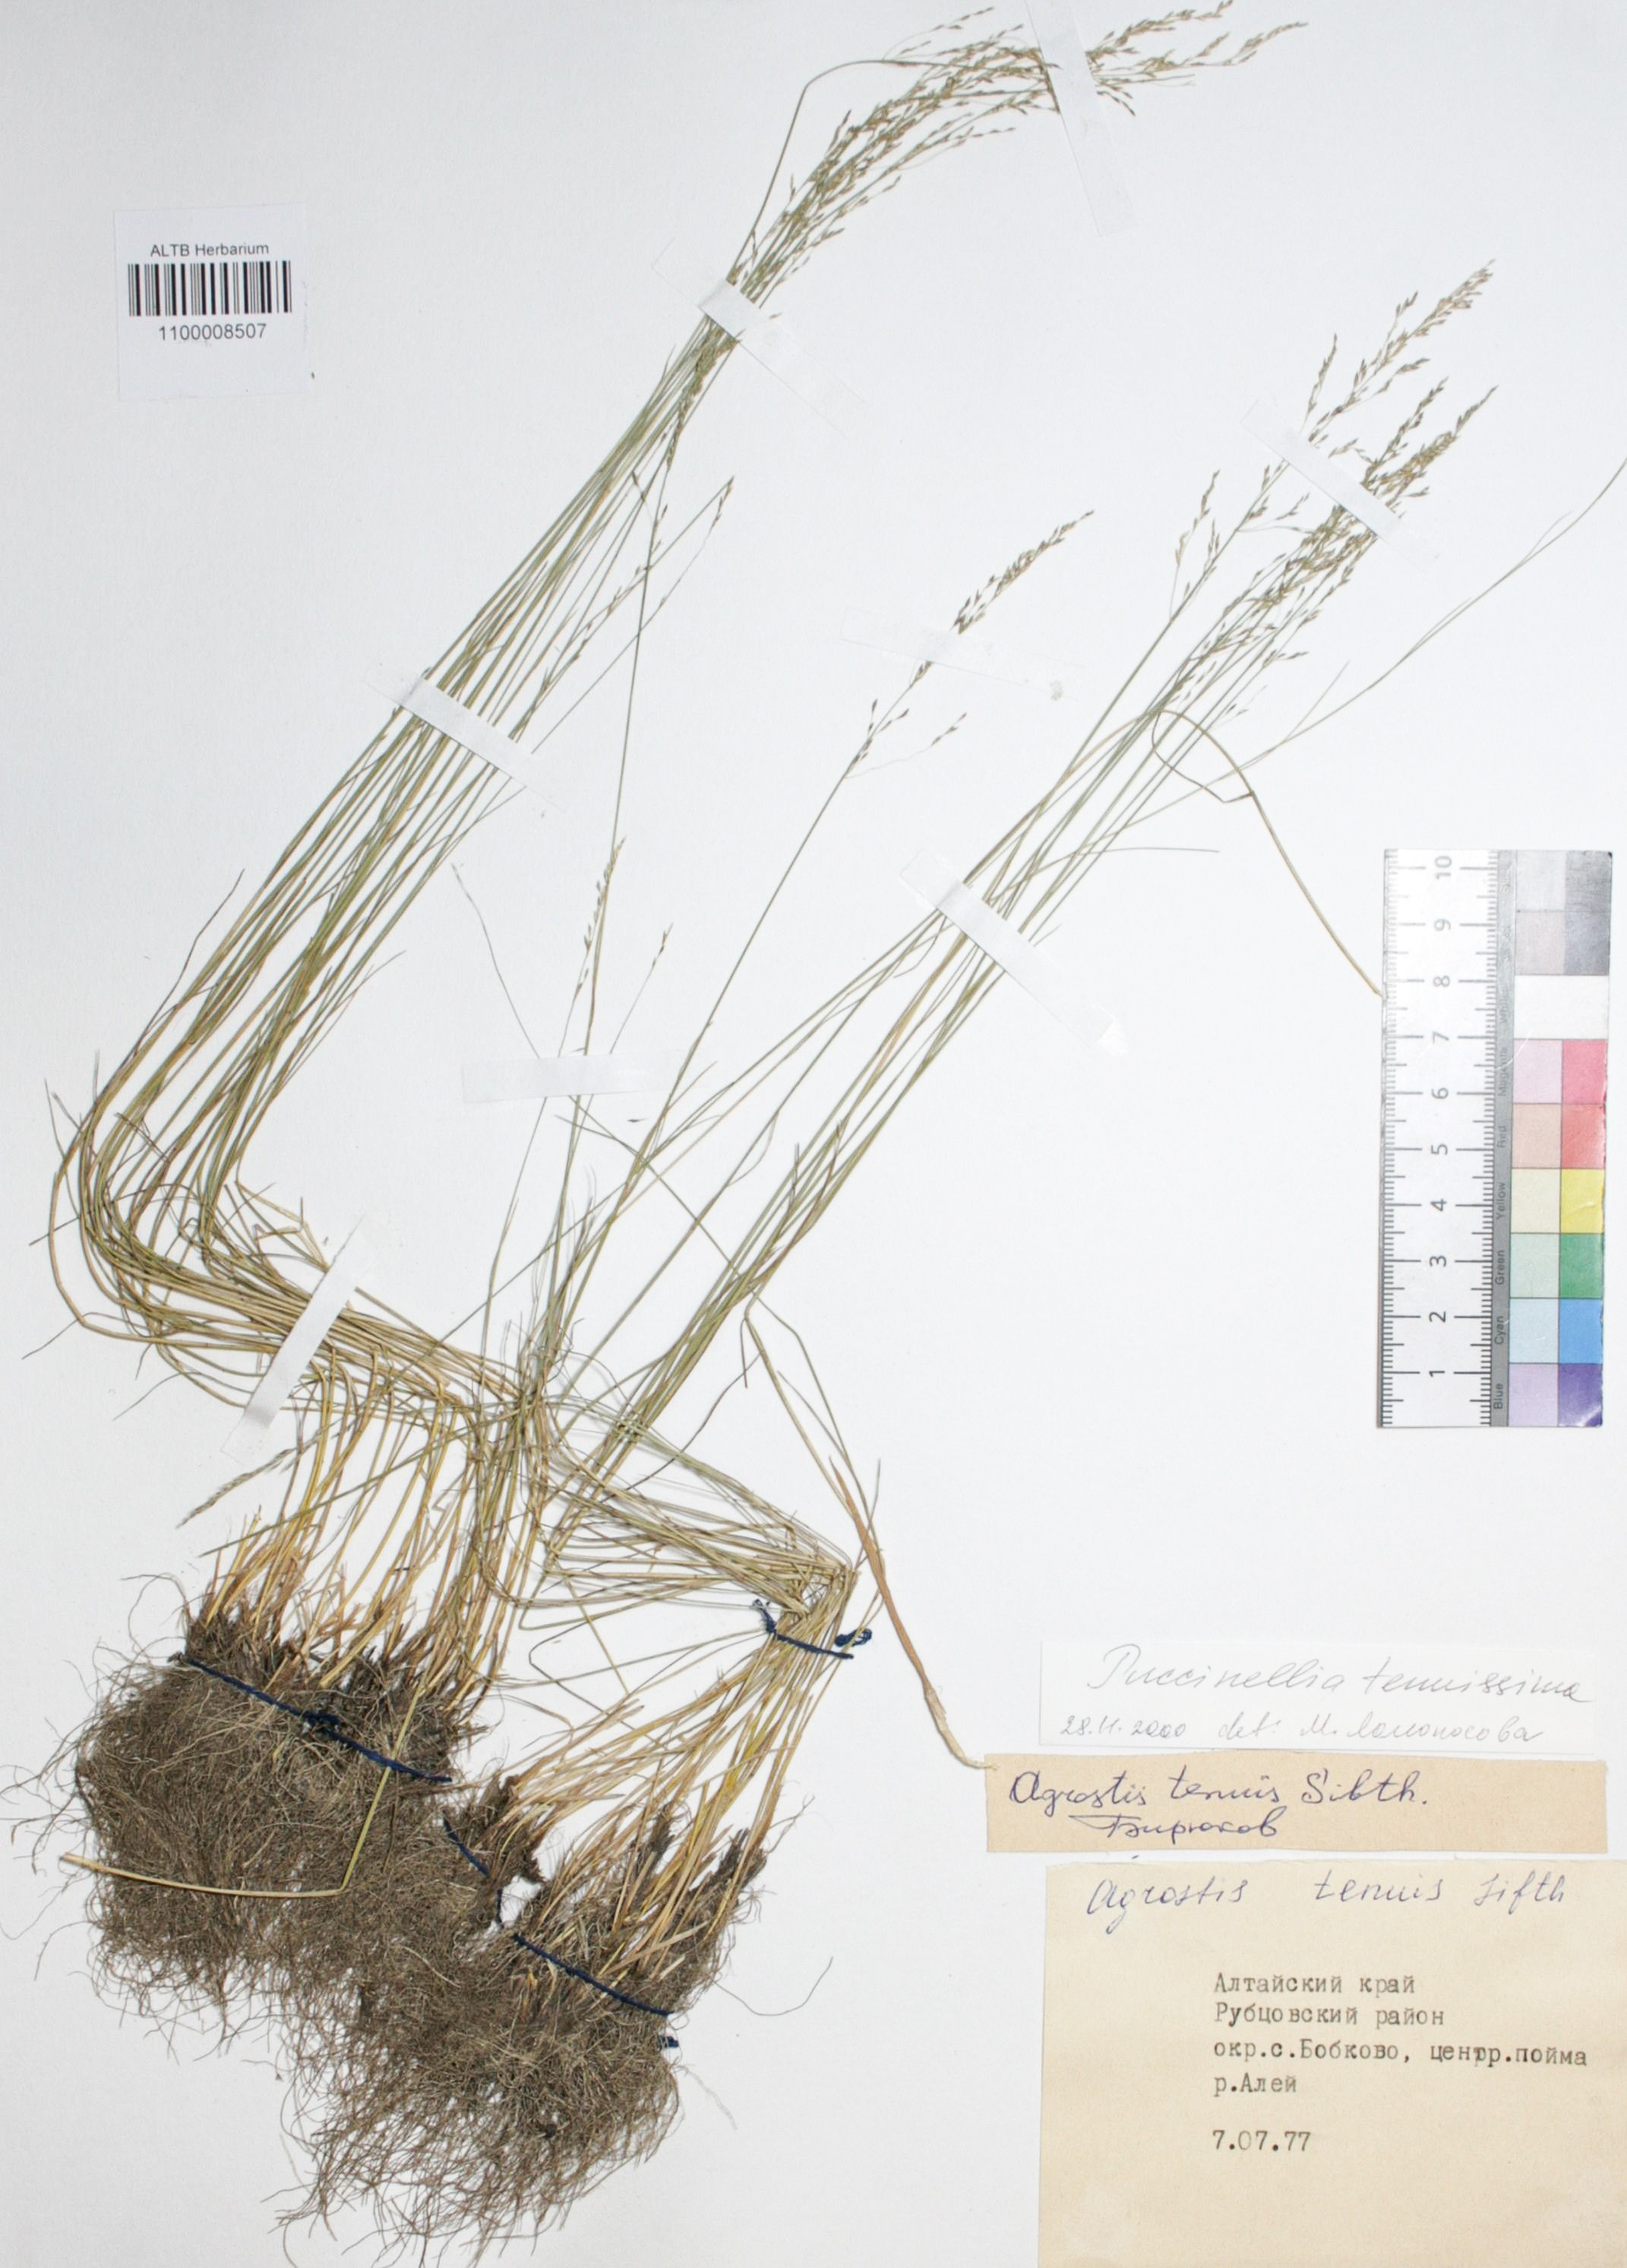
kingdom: Plantae
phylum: Tracheophyta
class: Liliopsida
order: Poales
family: Poaceae
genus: Puccinellia
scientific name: Puccinellia tenuiflora
